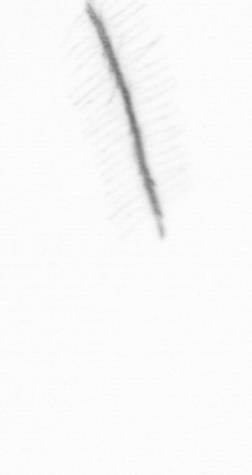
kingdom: Chromista
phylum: Ochrophyta
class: Bacillariophyceae
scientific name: Bacillariophyceae
